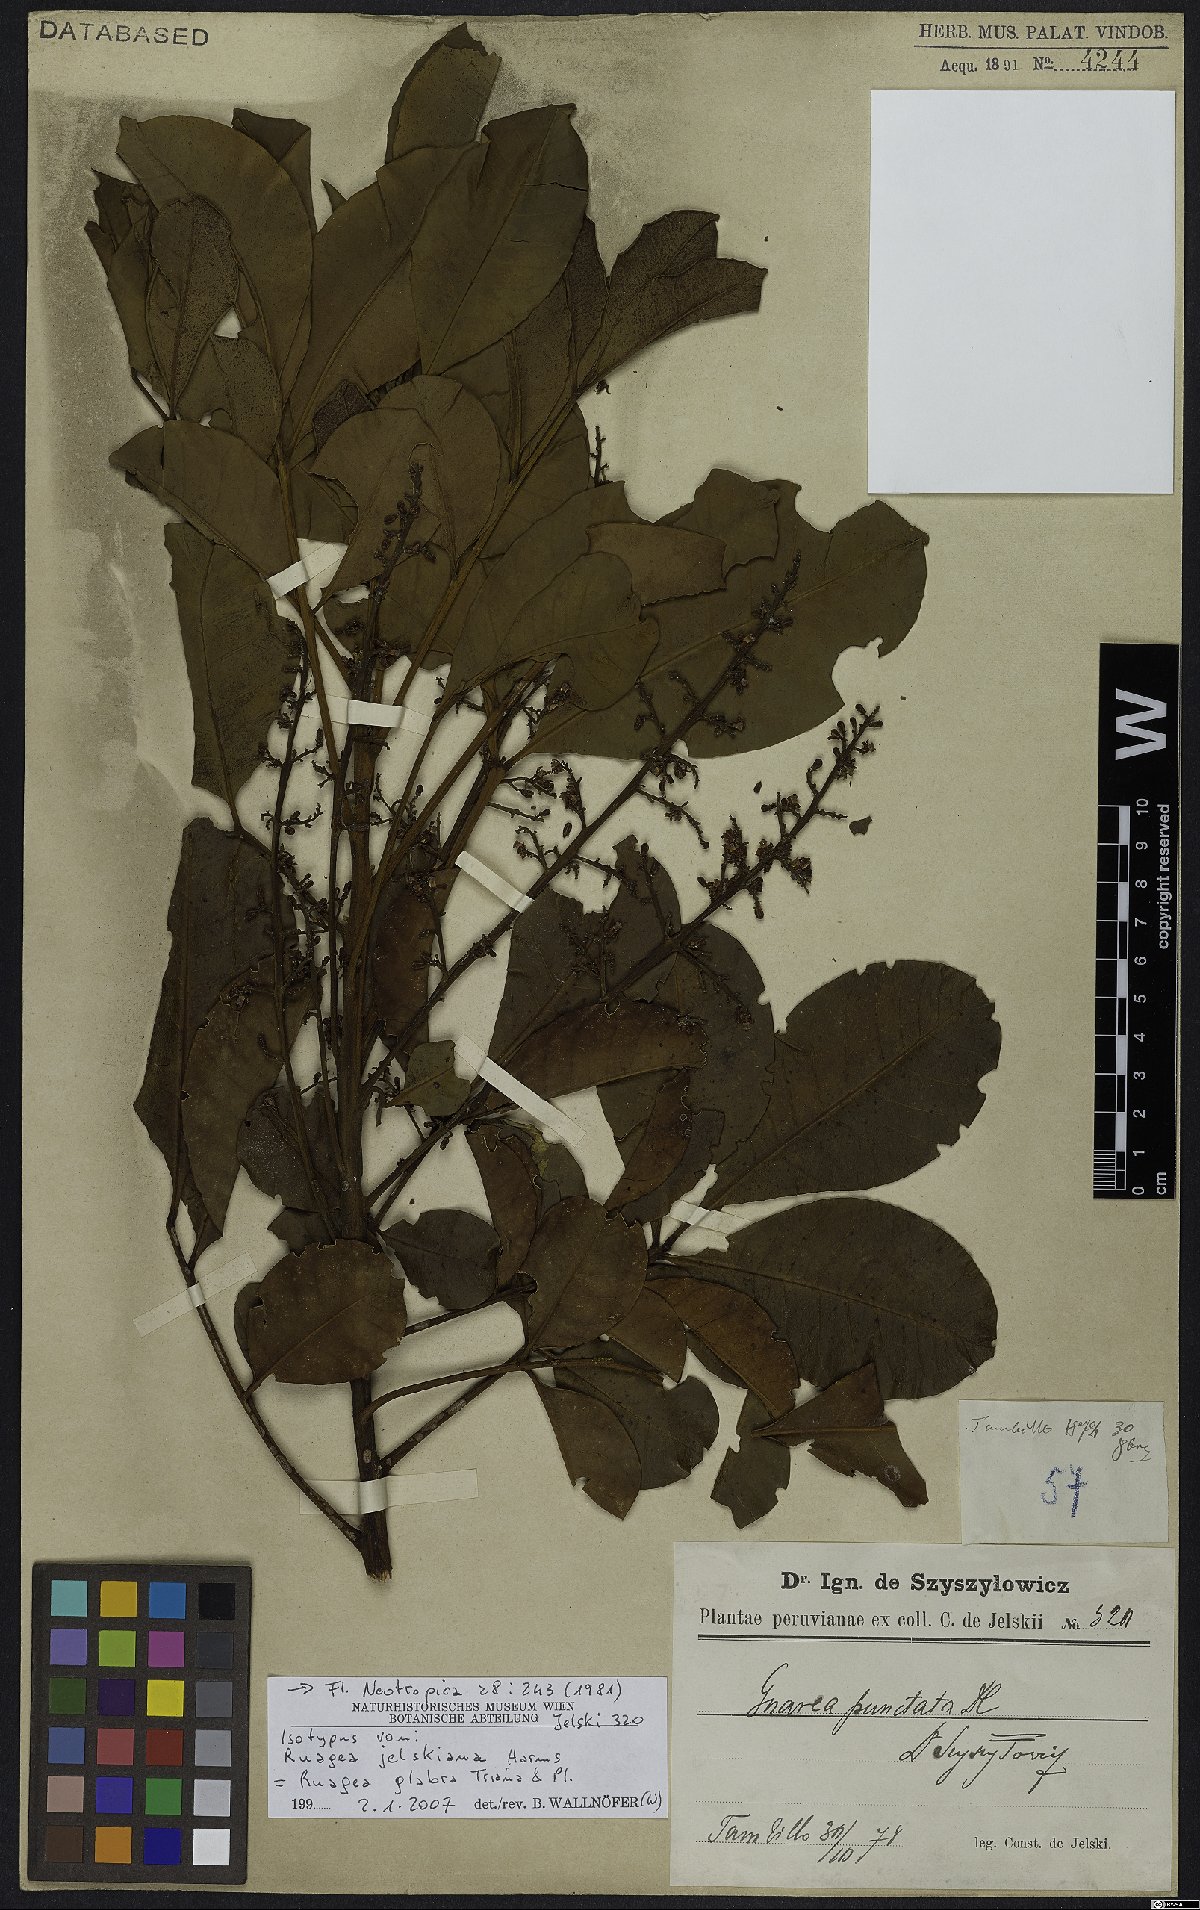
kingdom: Plantae
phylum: Tracheophyta
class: Magnoliopsida
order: Sapindales
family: Meliaceae
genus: Ruagea
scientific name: Ruagea glabra
